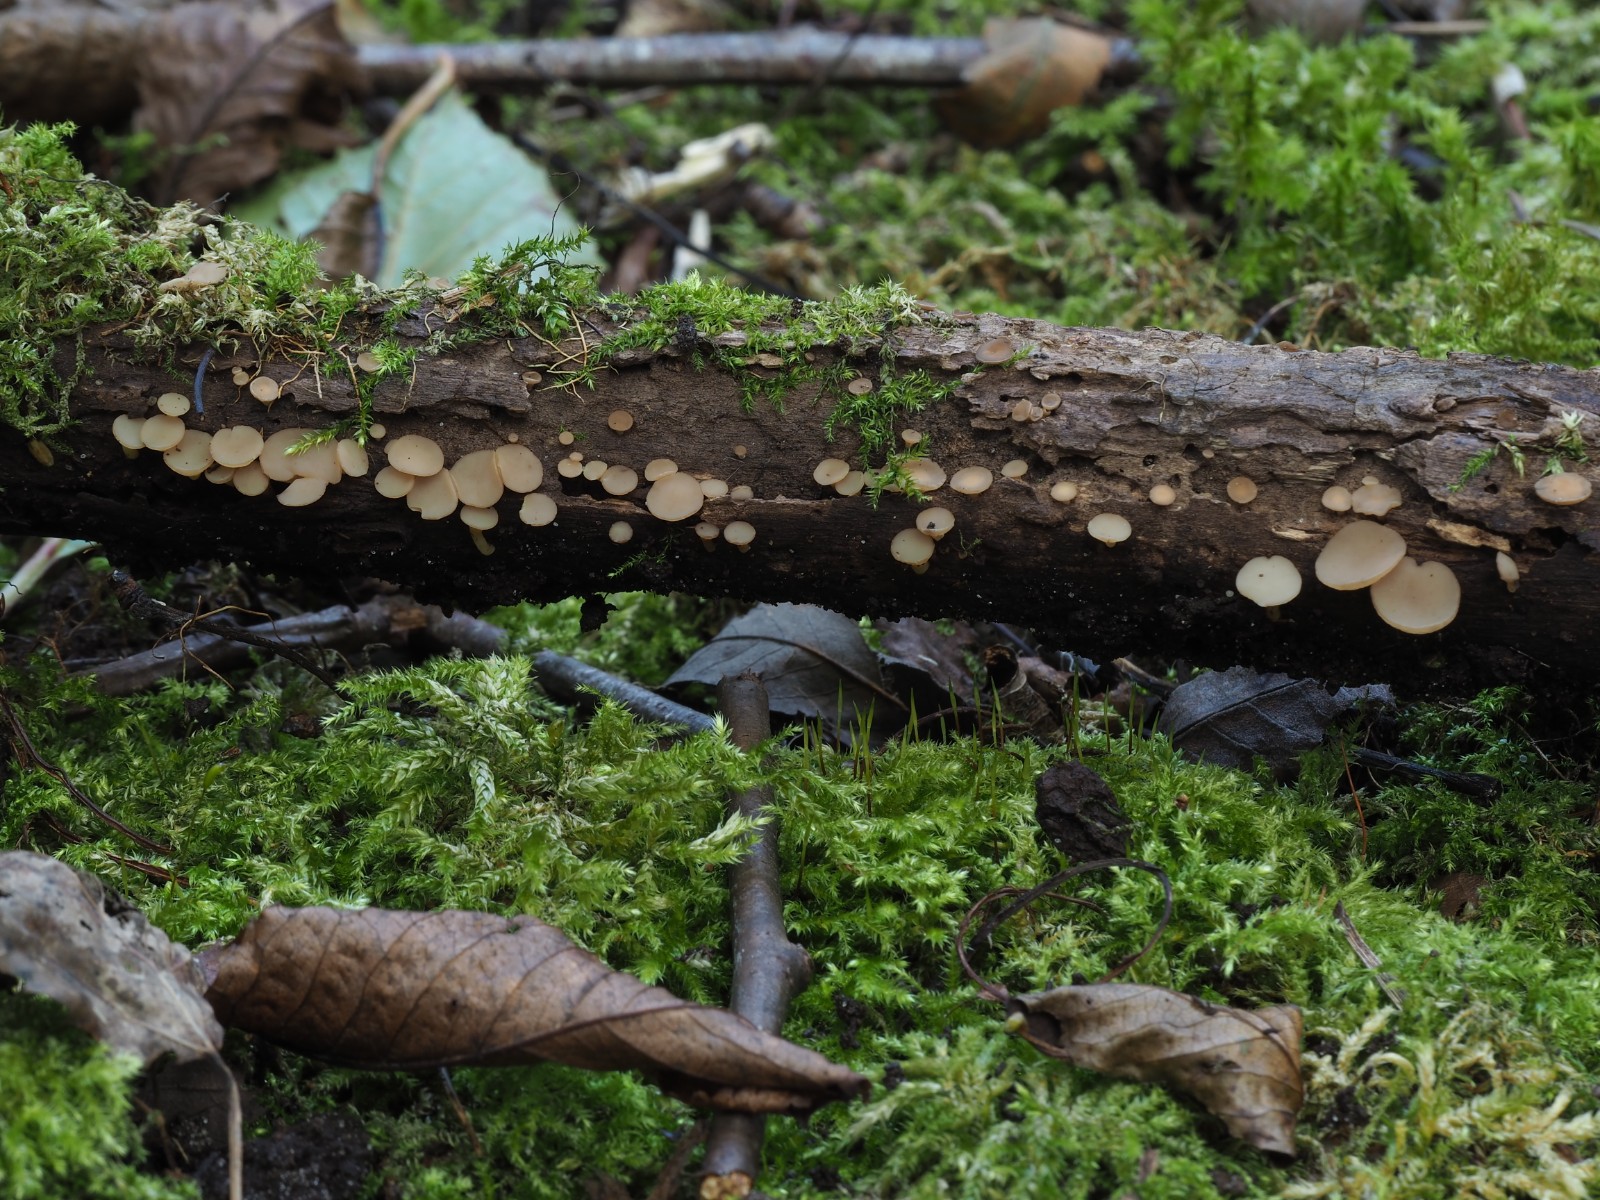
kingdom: Fungi
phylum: Ascomycota
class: Leotiomycetes
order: Helotiales
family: Helotiaceae
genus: Tatraea
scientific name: Tatraea dumbirensis
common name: Beechwood goblet
